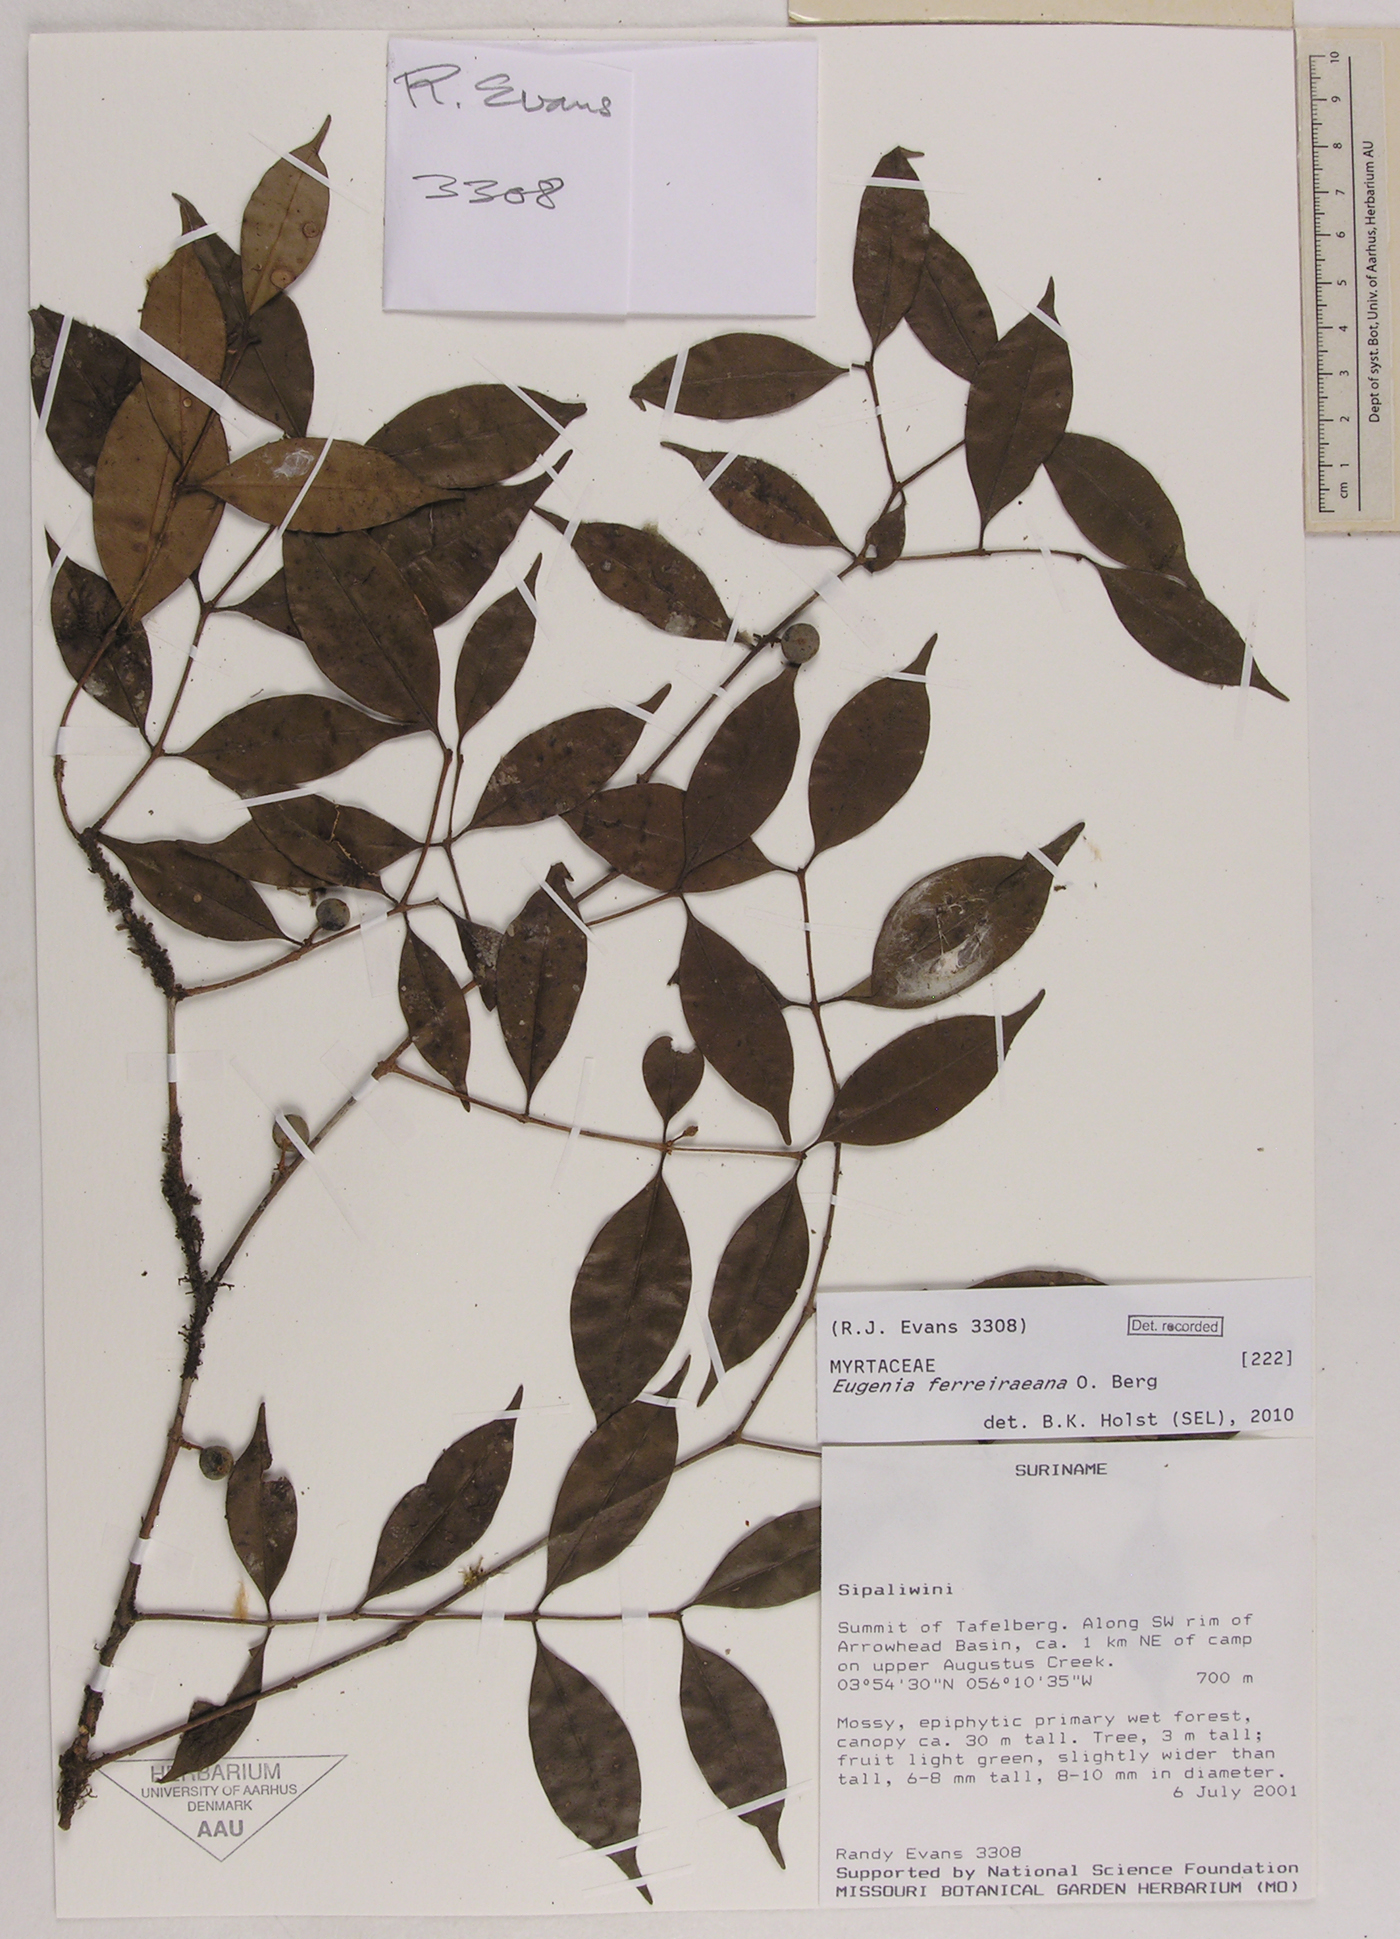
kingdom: Plantae
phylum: Tracheophyta
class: Magnoliopsida
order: Myrtales
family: Myrtaceae
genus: Eugenia
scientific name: Eugenia ferreiraeana
